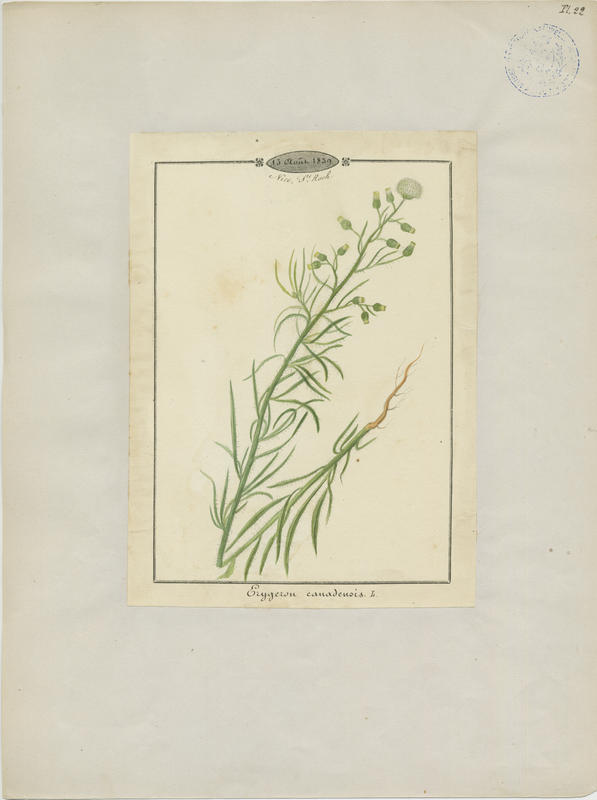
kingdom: Plantae
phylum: Tracheophyta
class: Magnoliopsida
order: Asterales
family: Asteraceae
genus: Erigeron
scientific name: Erigeron canadensis
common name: Canadian fleabane
